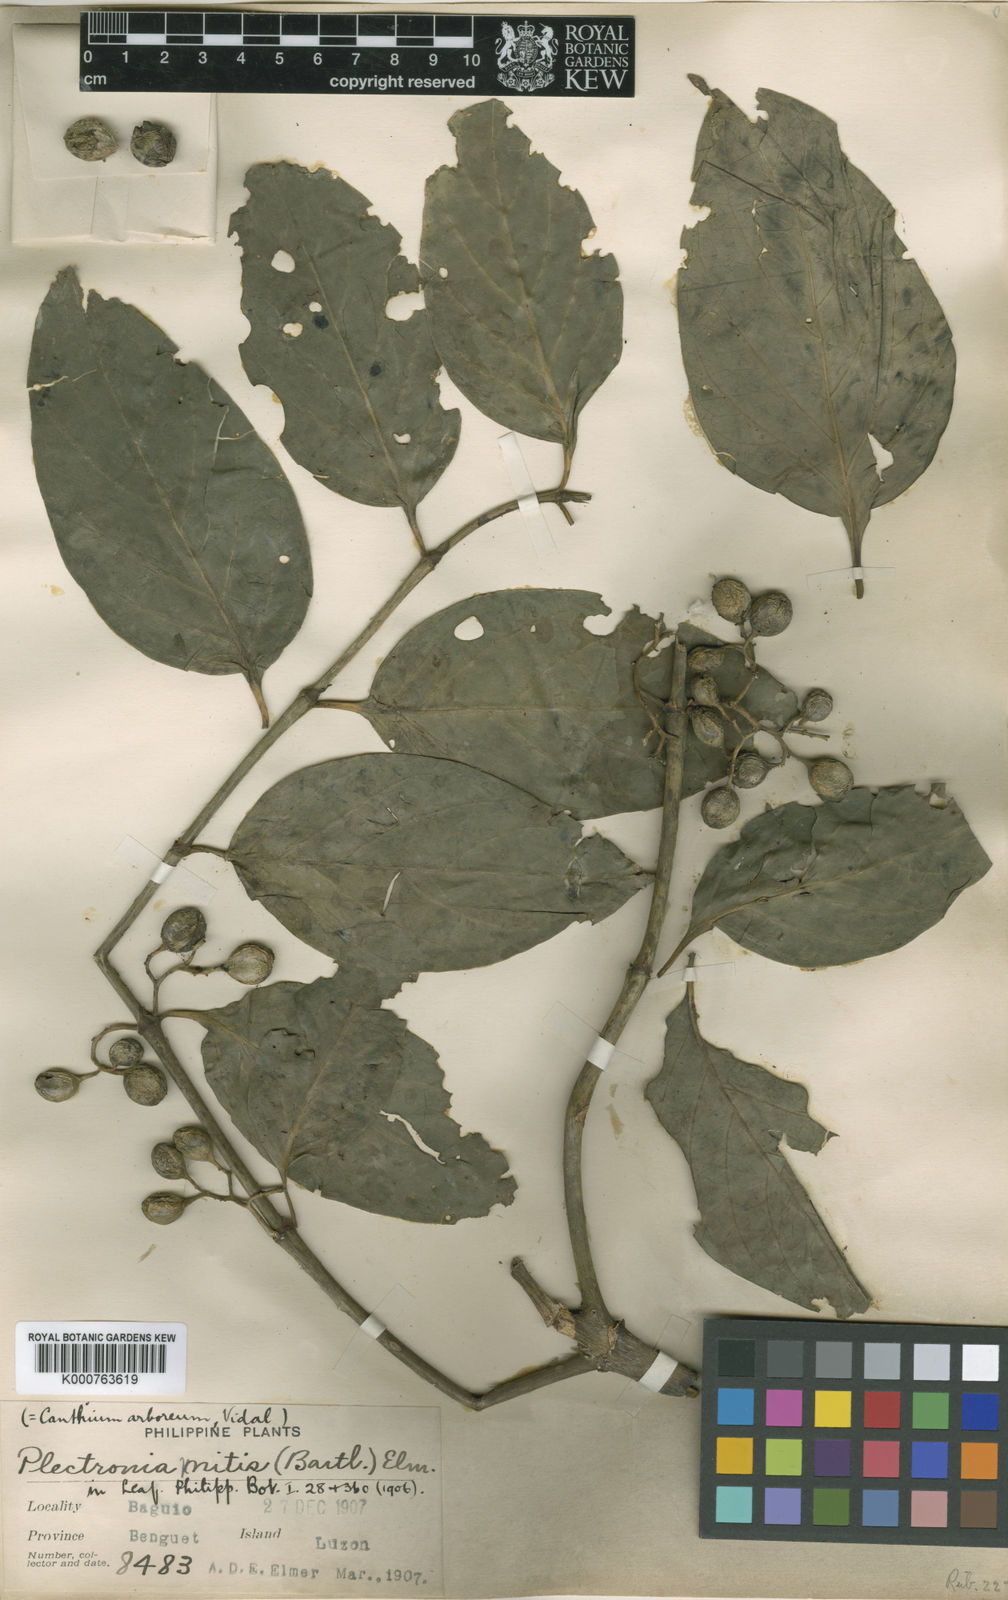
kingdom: Plantae
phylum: Tracheophyta
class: Magnoliopsida
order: Gentianales
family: Rubiaceae
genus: Kanapia
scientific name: Kanapia monstrosa
